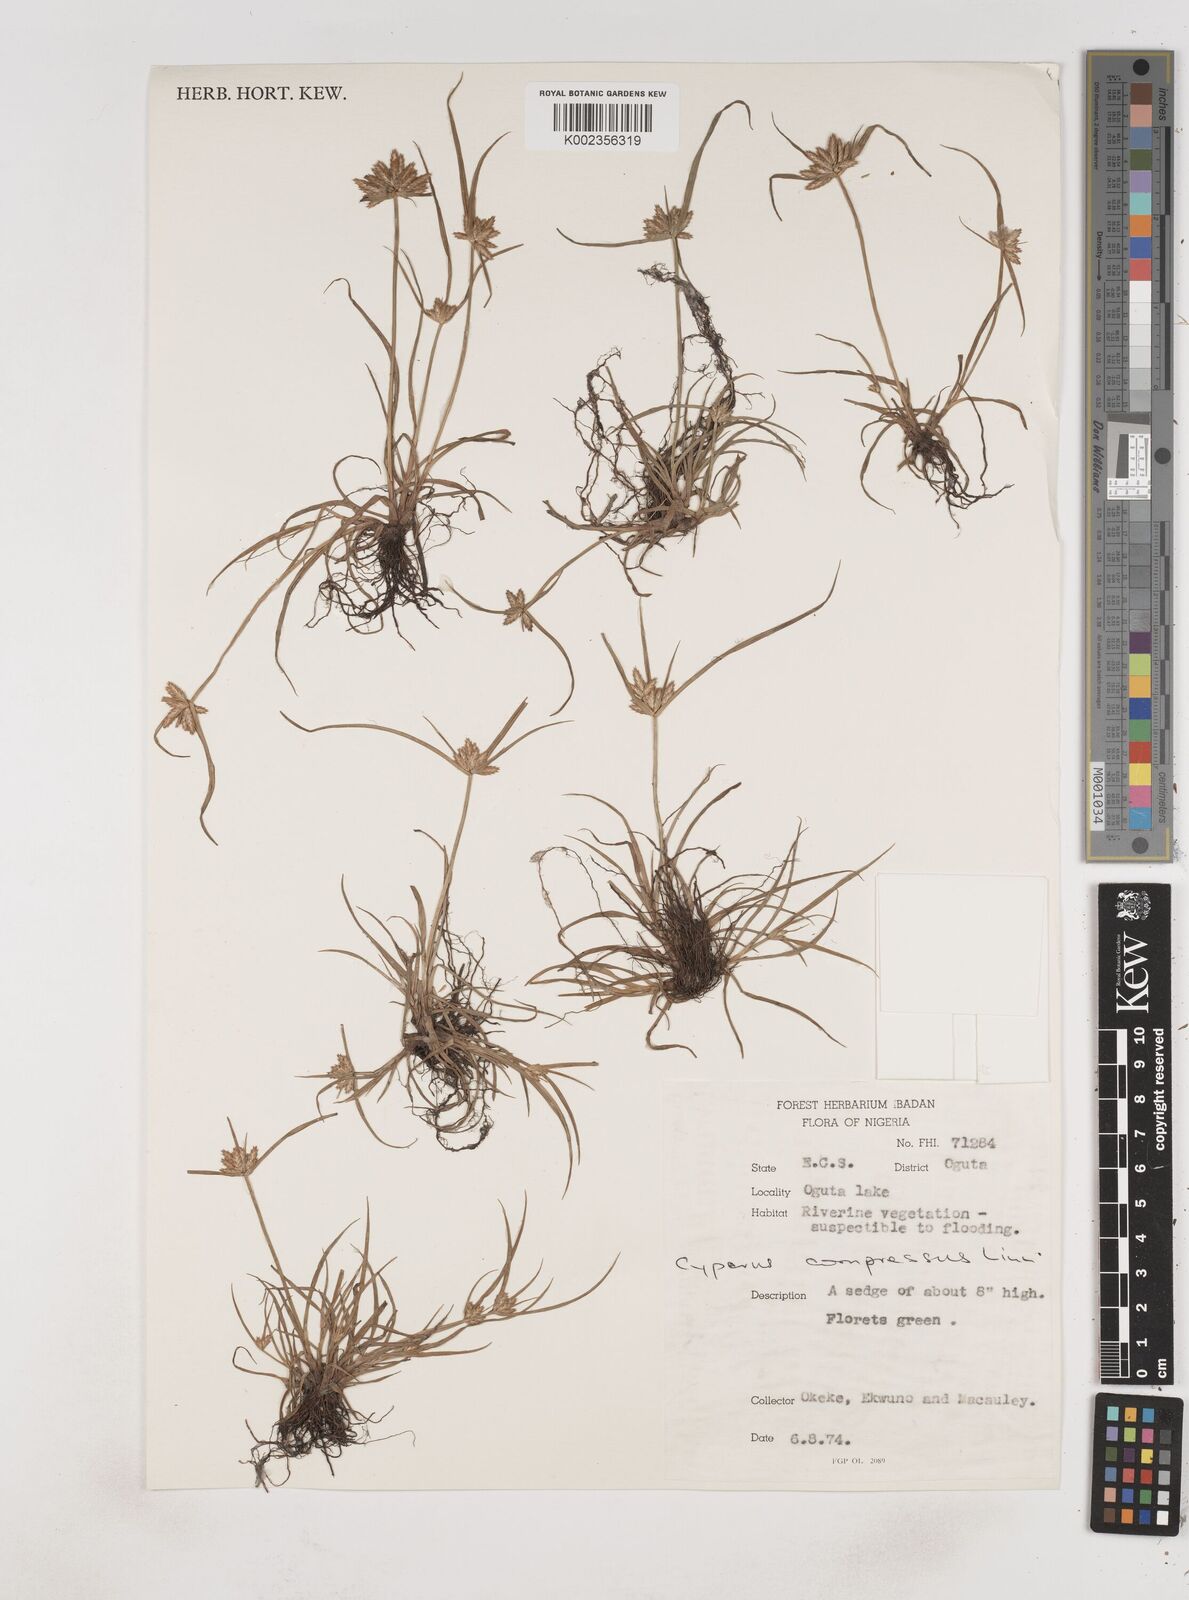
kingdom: Plantae
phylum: Tracheophyta
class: Liliopsida
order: Poales
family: Cyperaceae
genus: Cyperus
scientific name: Cyperus compressus
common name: Poorland flatsedge
